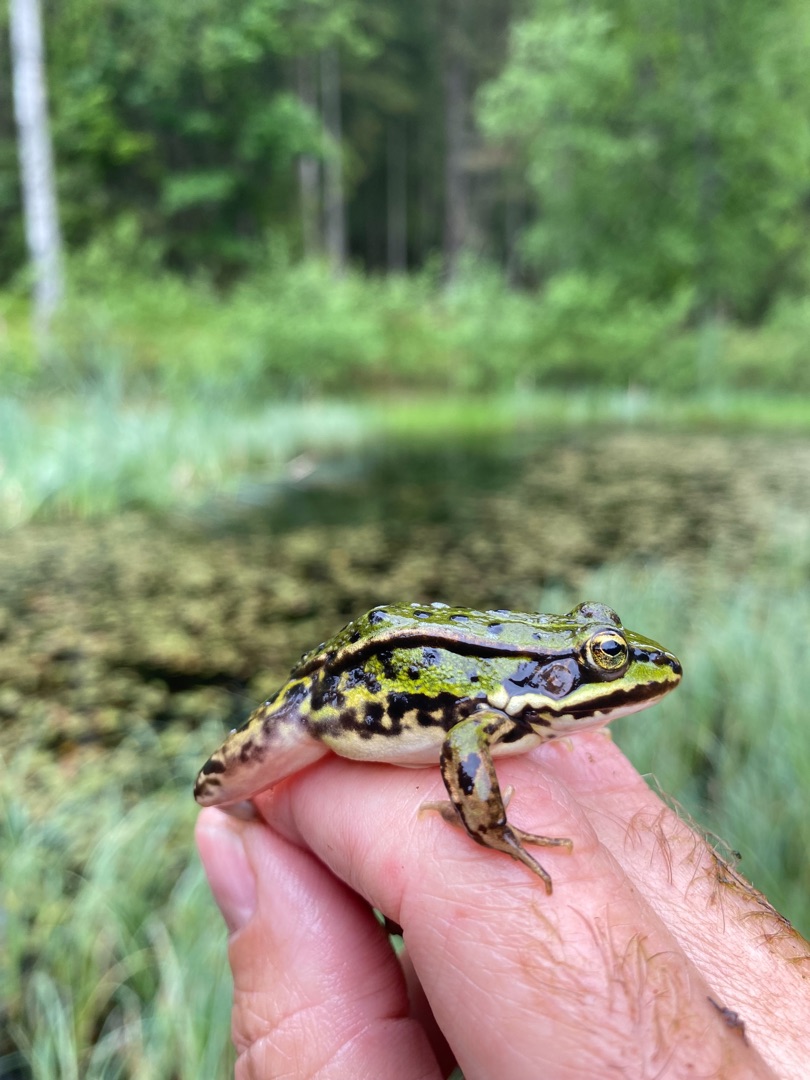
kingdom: Animalia
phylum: Chordata
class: Amphibia
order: Anura
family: Ranidae
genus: Pelophylax
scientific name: Pelophylax lessonae
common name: Grøn frø
